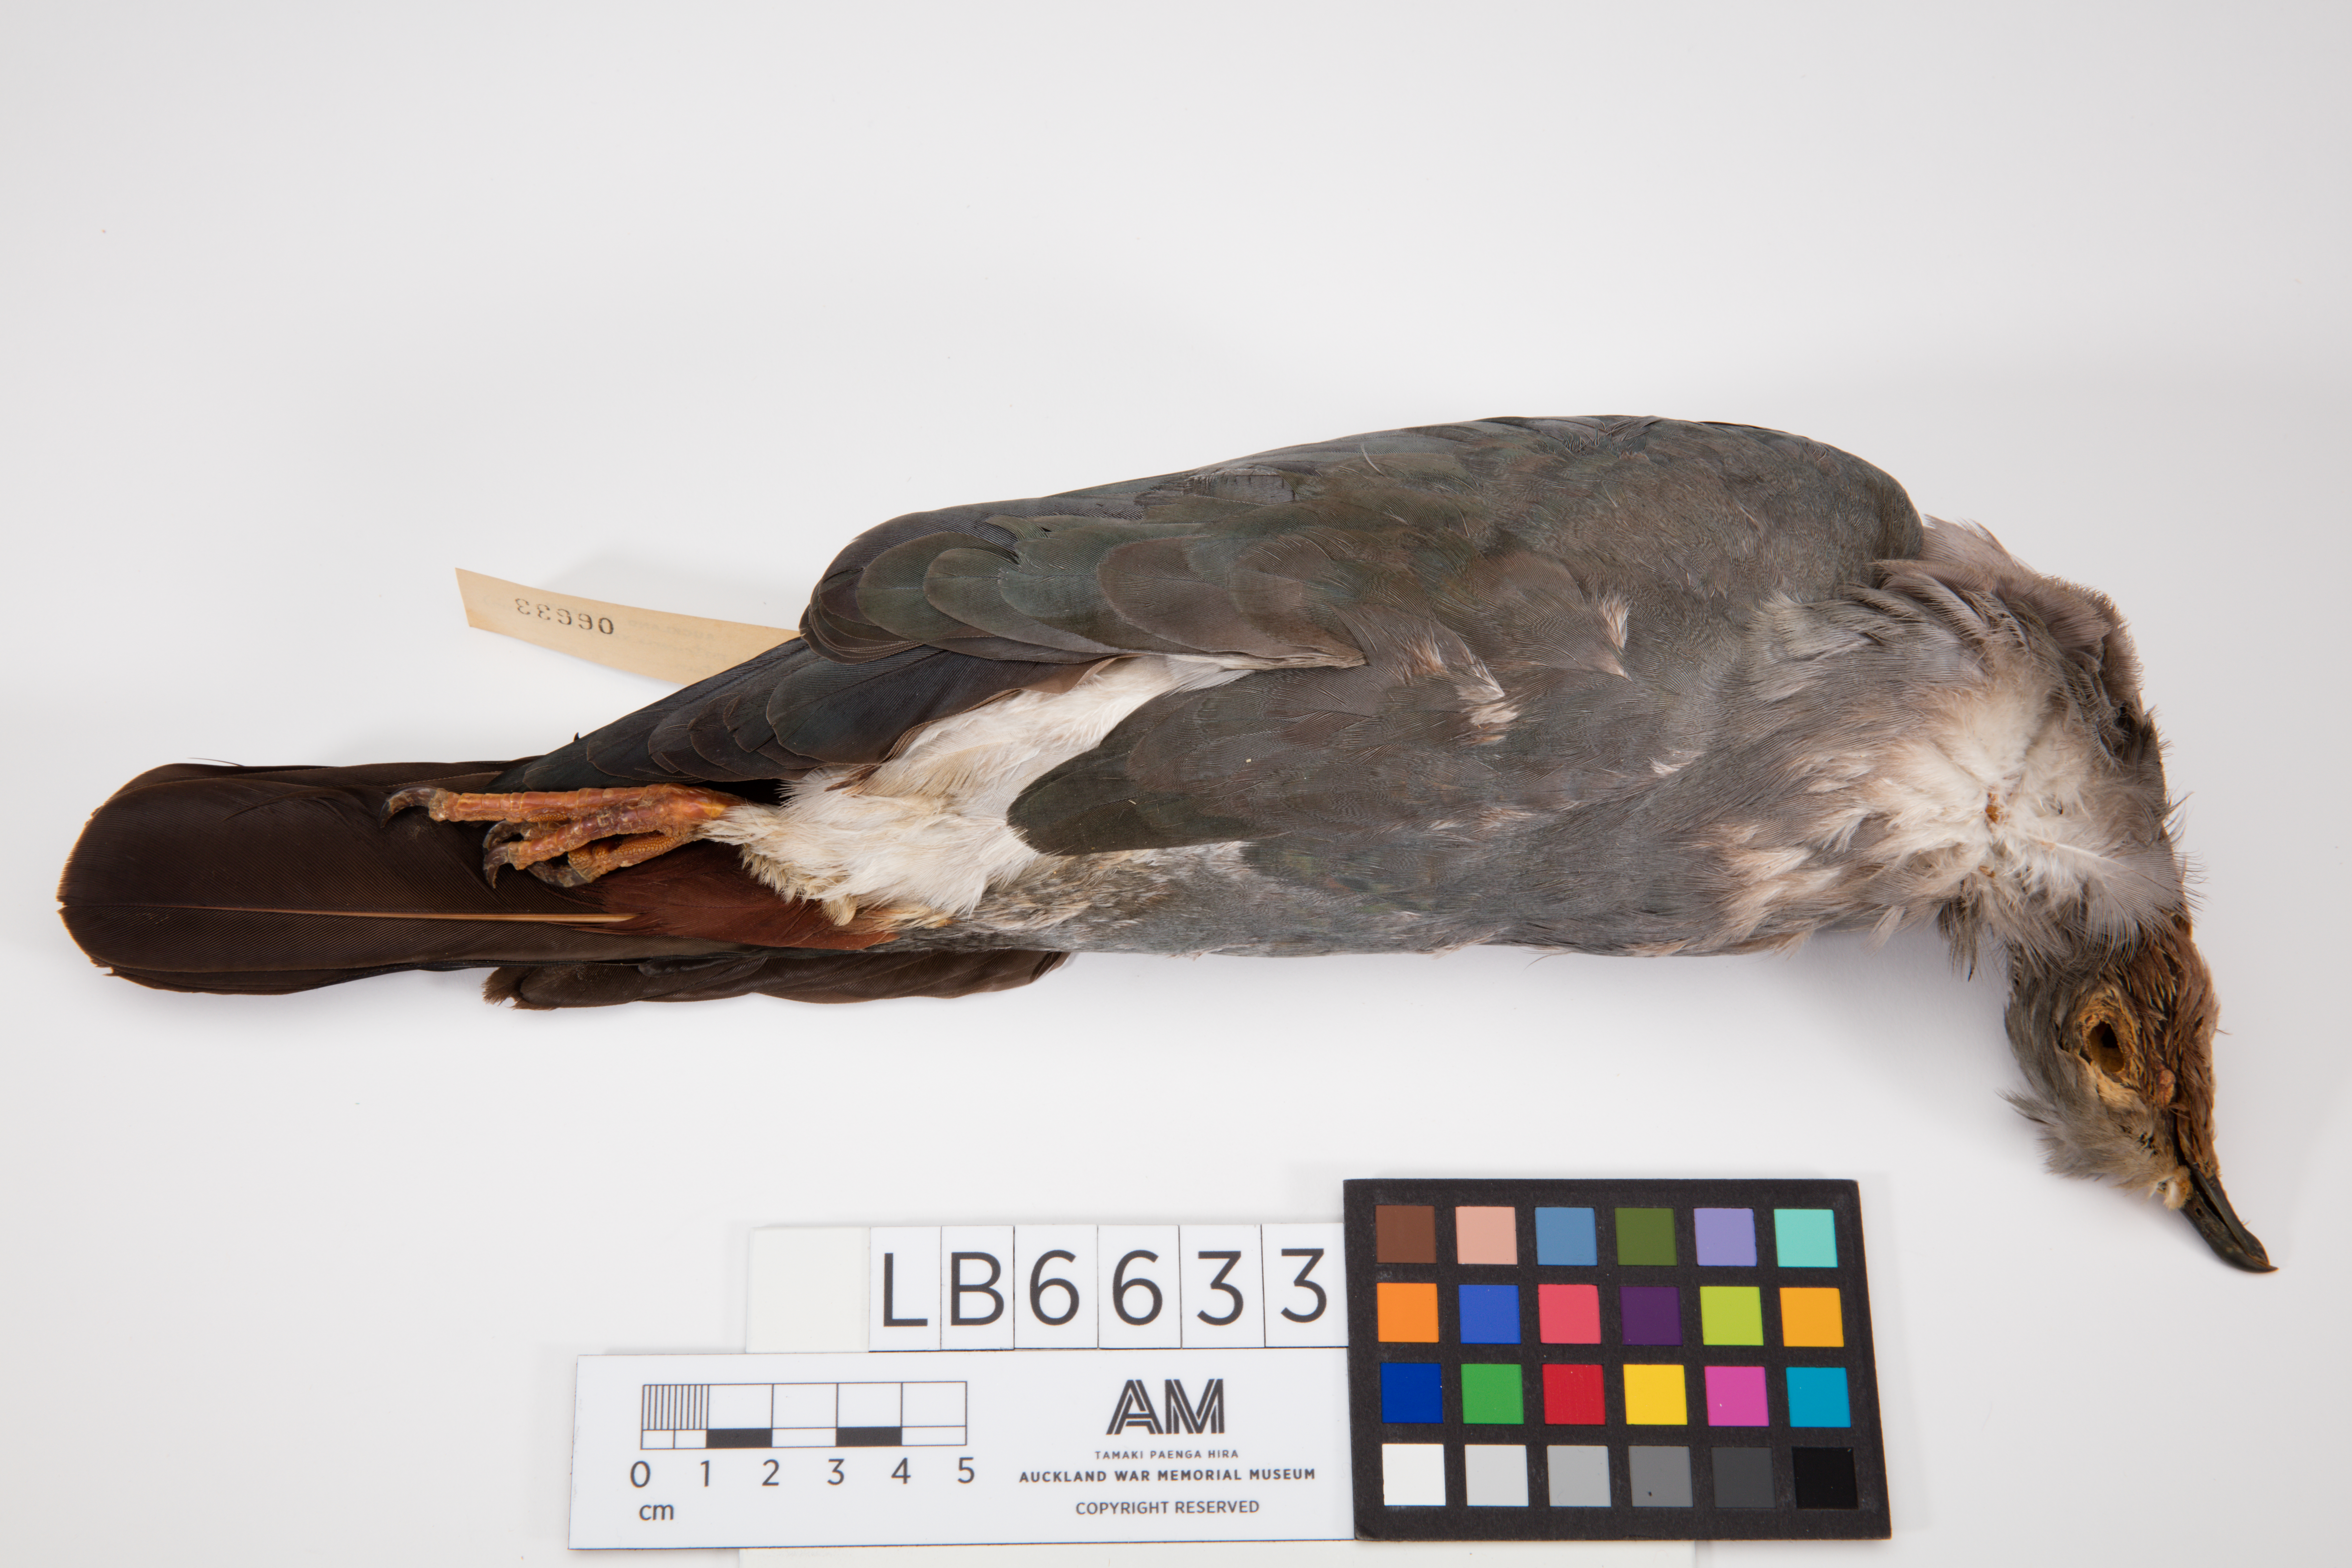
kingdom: Animalia
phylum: Chordata
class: Aves
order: Columbiformes
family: Columbidae
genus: Ducula
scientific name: Ducula pistrinaria
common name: Island imperial-pigeon
